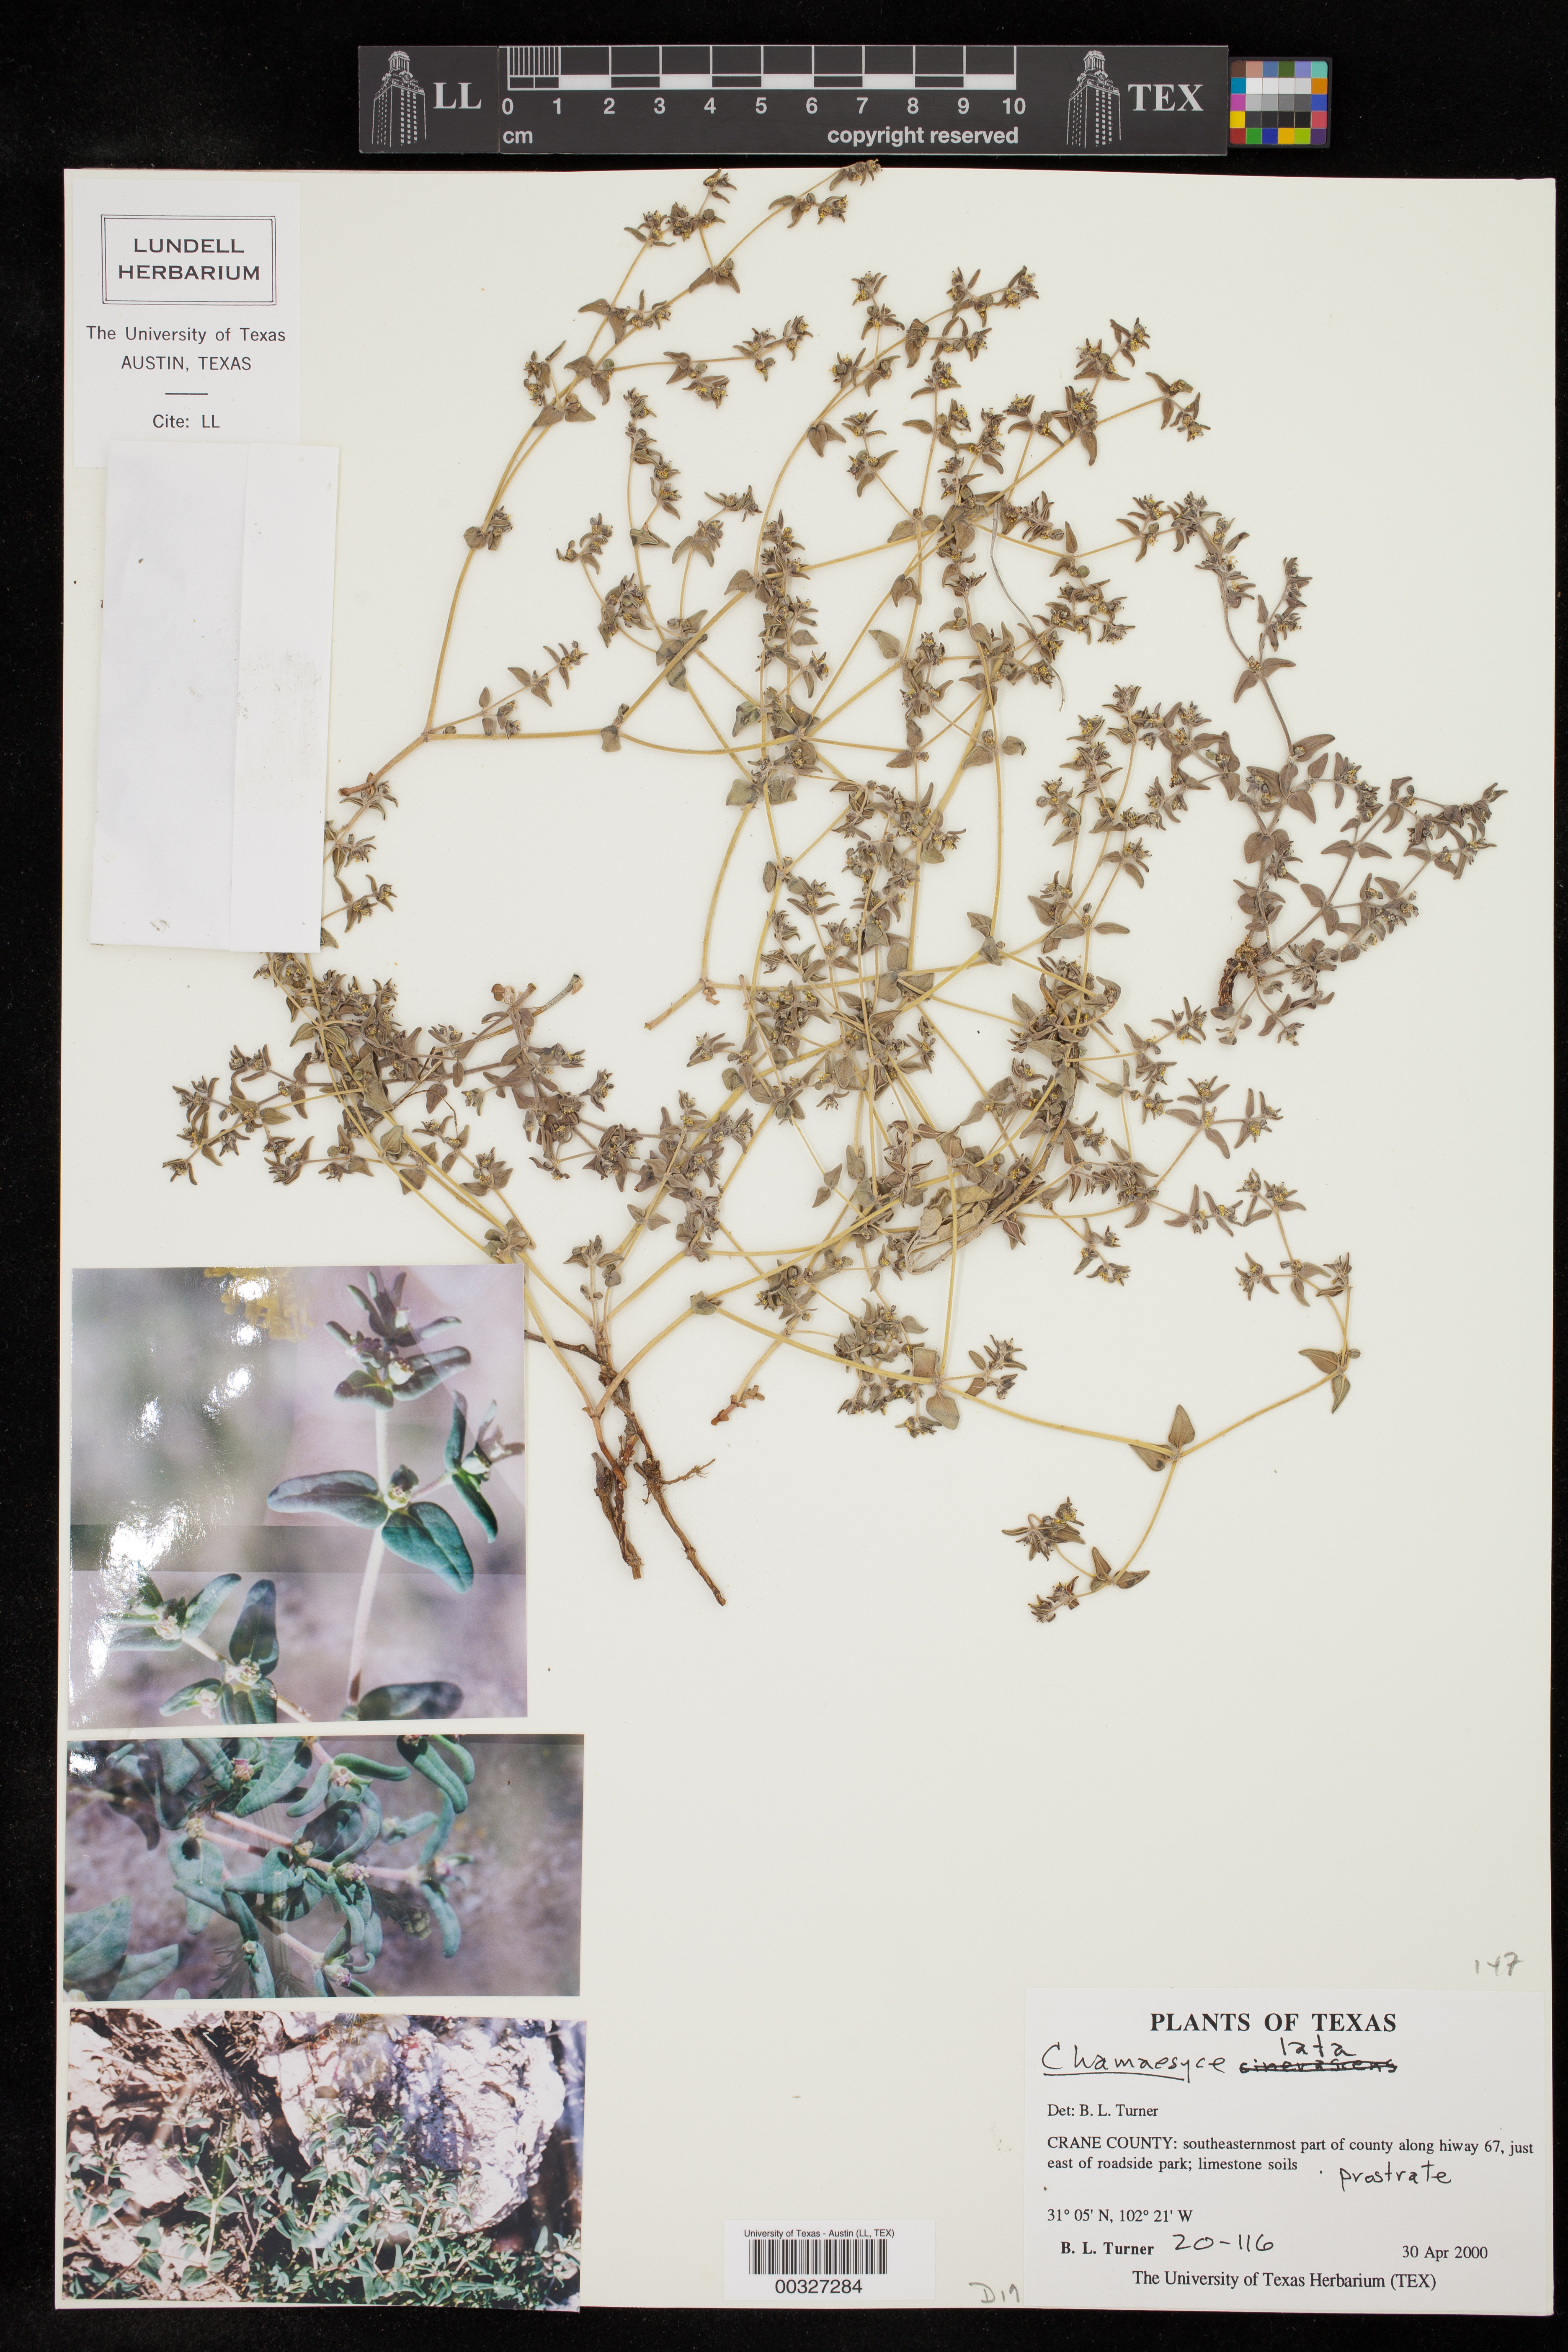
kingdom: Plantae
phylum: Tracheophyta
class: Magnoliopsida
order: Malpighiales
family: Euphorbiaceae
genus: Euphorbia
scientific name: Euphorbia lata
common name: Hoary euphorbia
